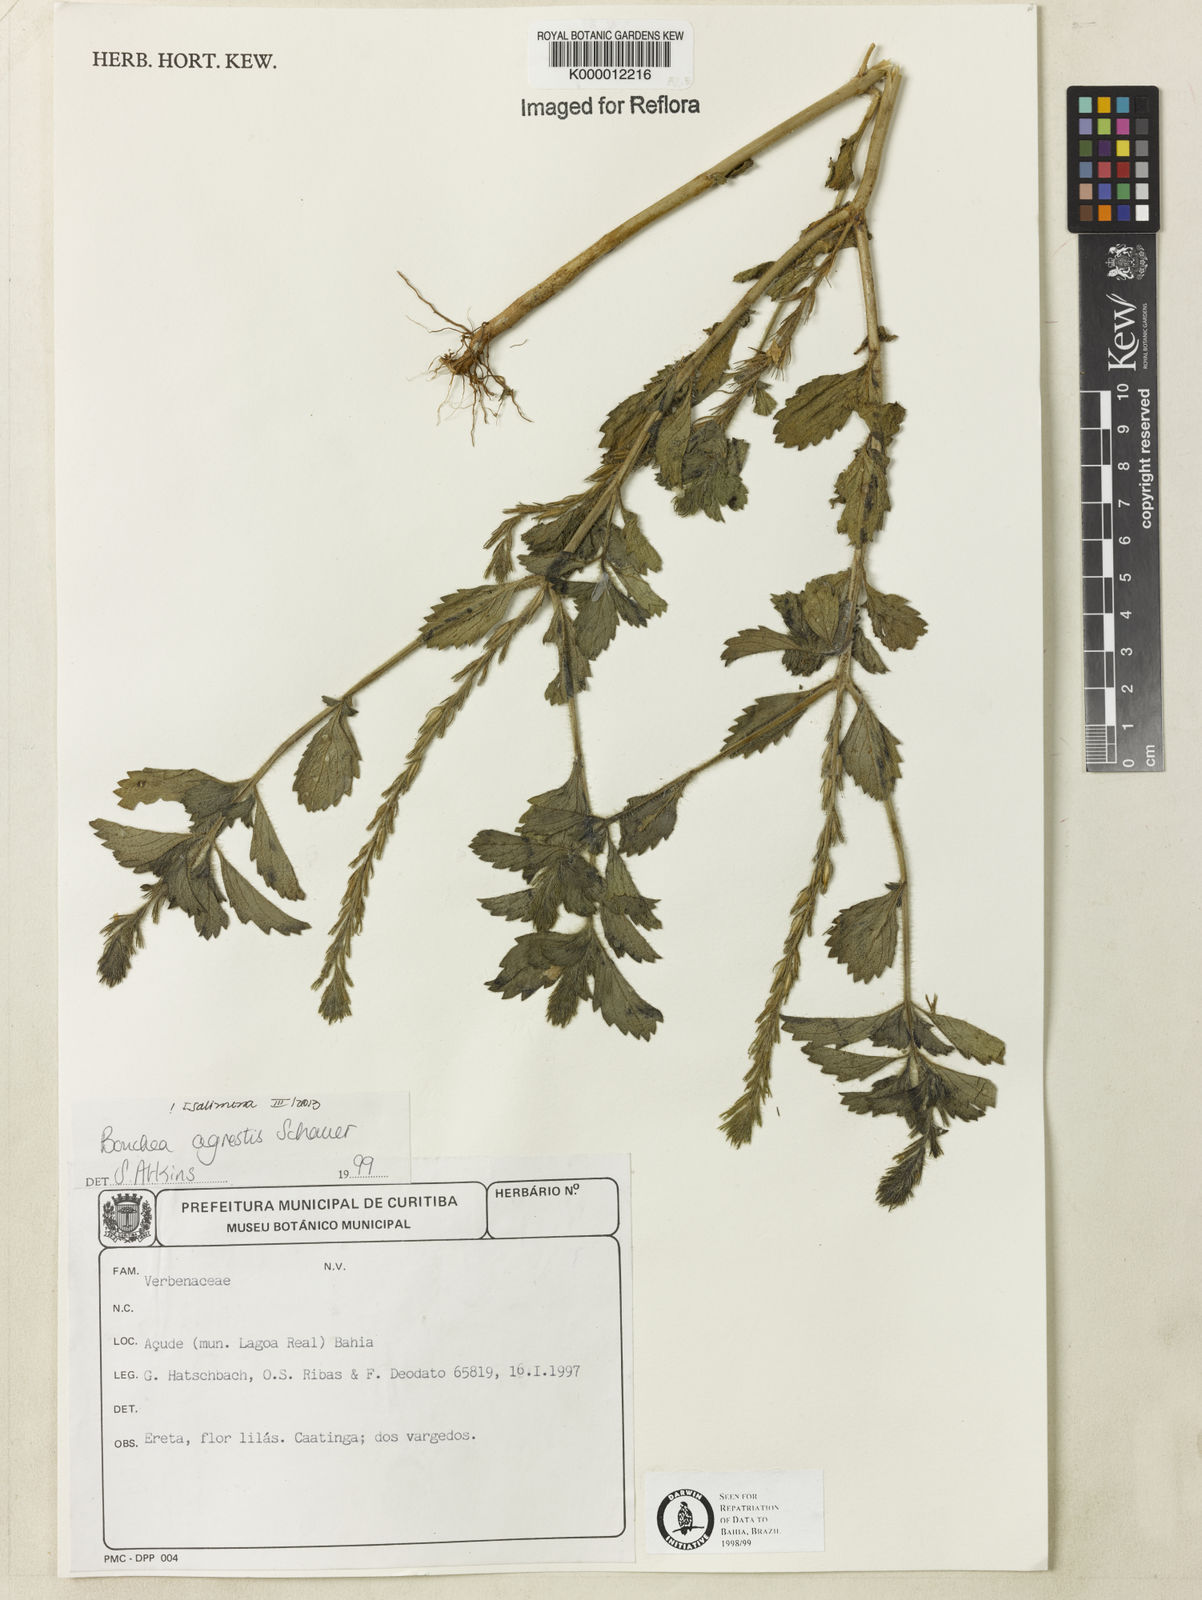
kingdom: Plantae
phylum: Tracheophyta
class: Magnoliopsida
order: Lamiales
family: Verbenaceae
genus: Bouchea
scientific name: Bouchea agrestis
